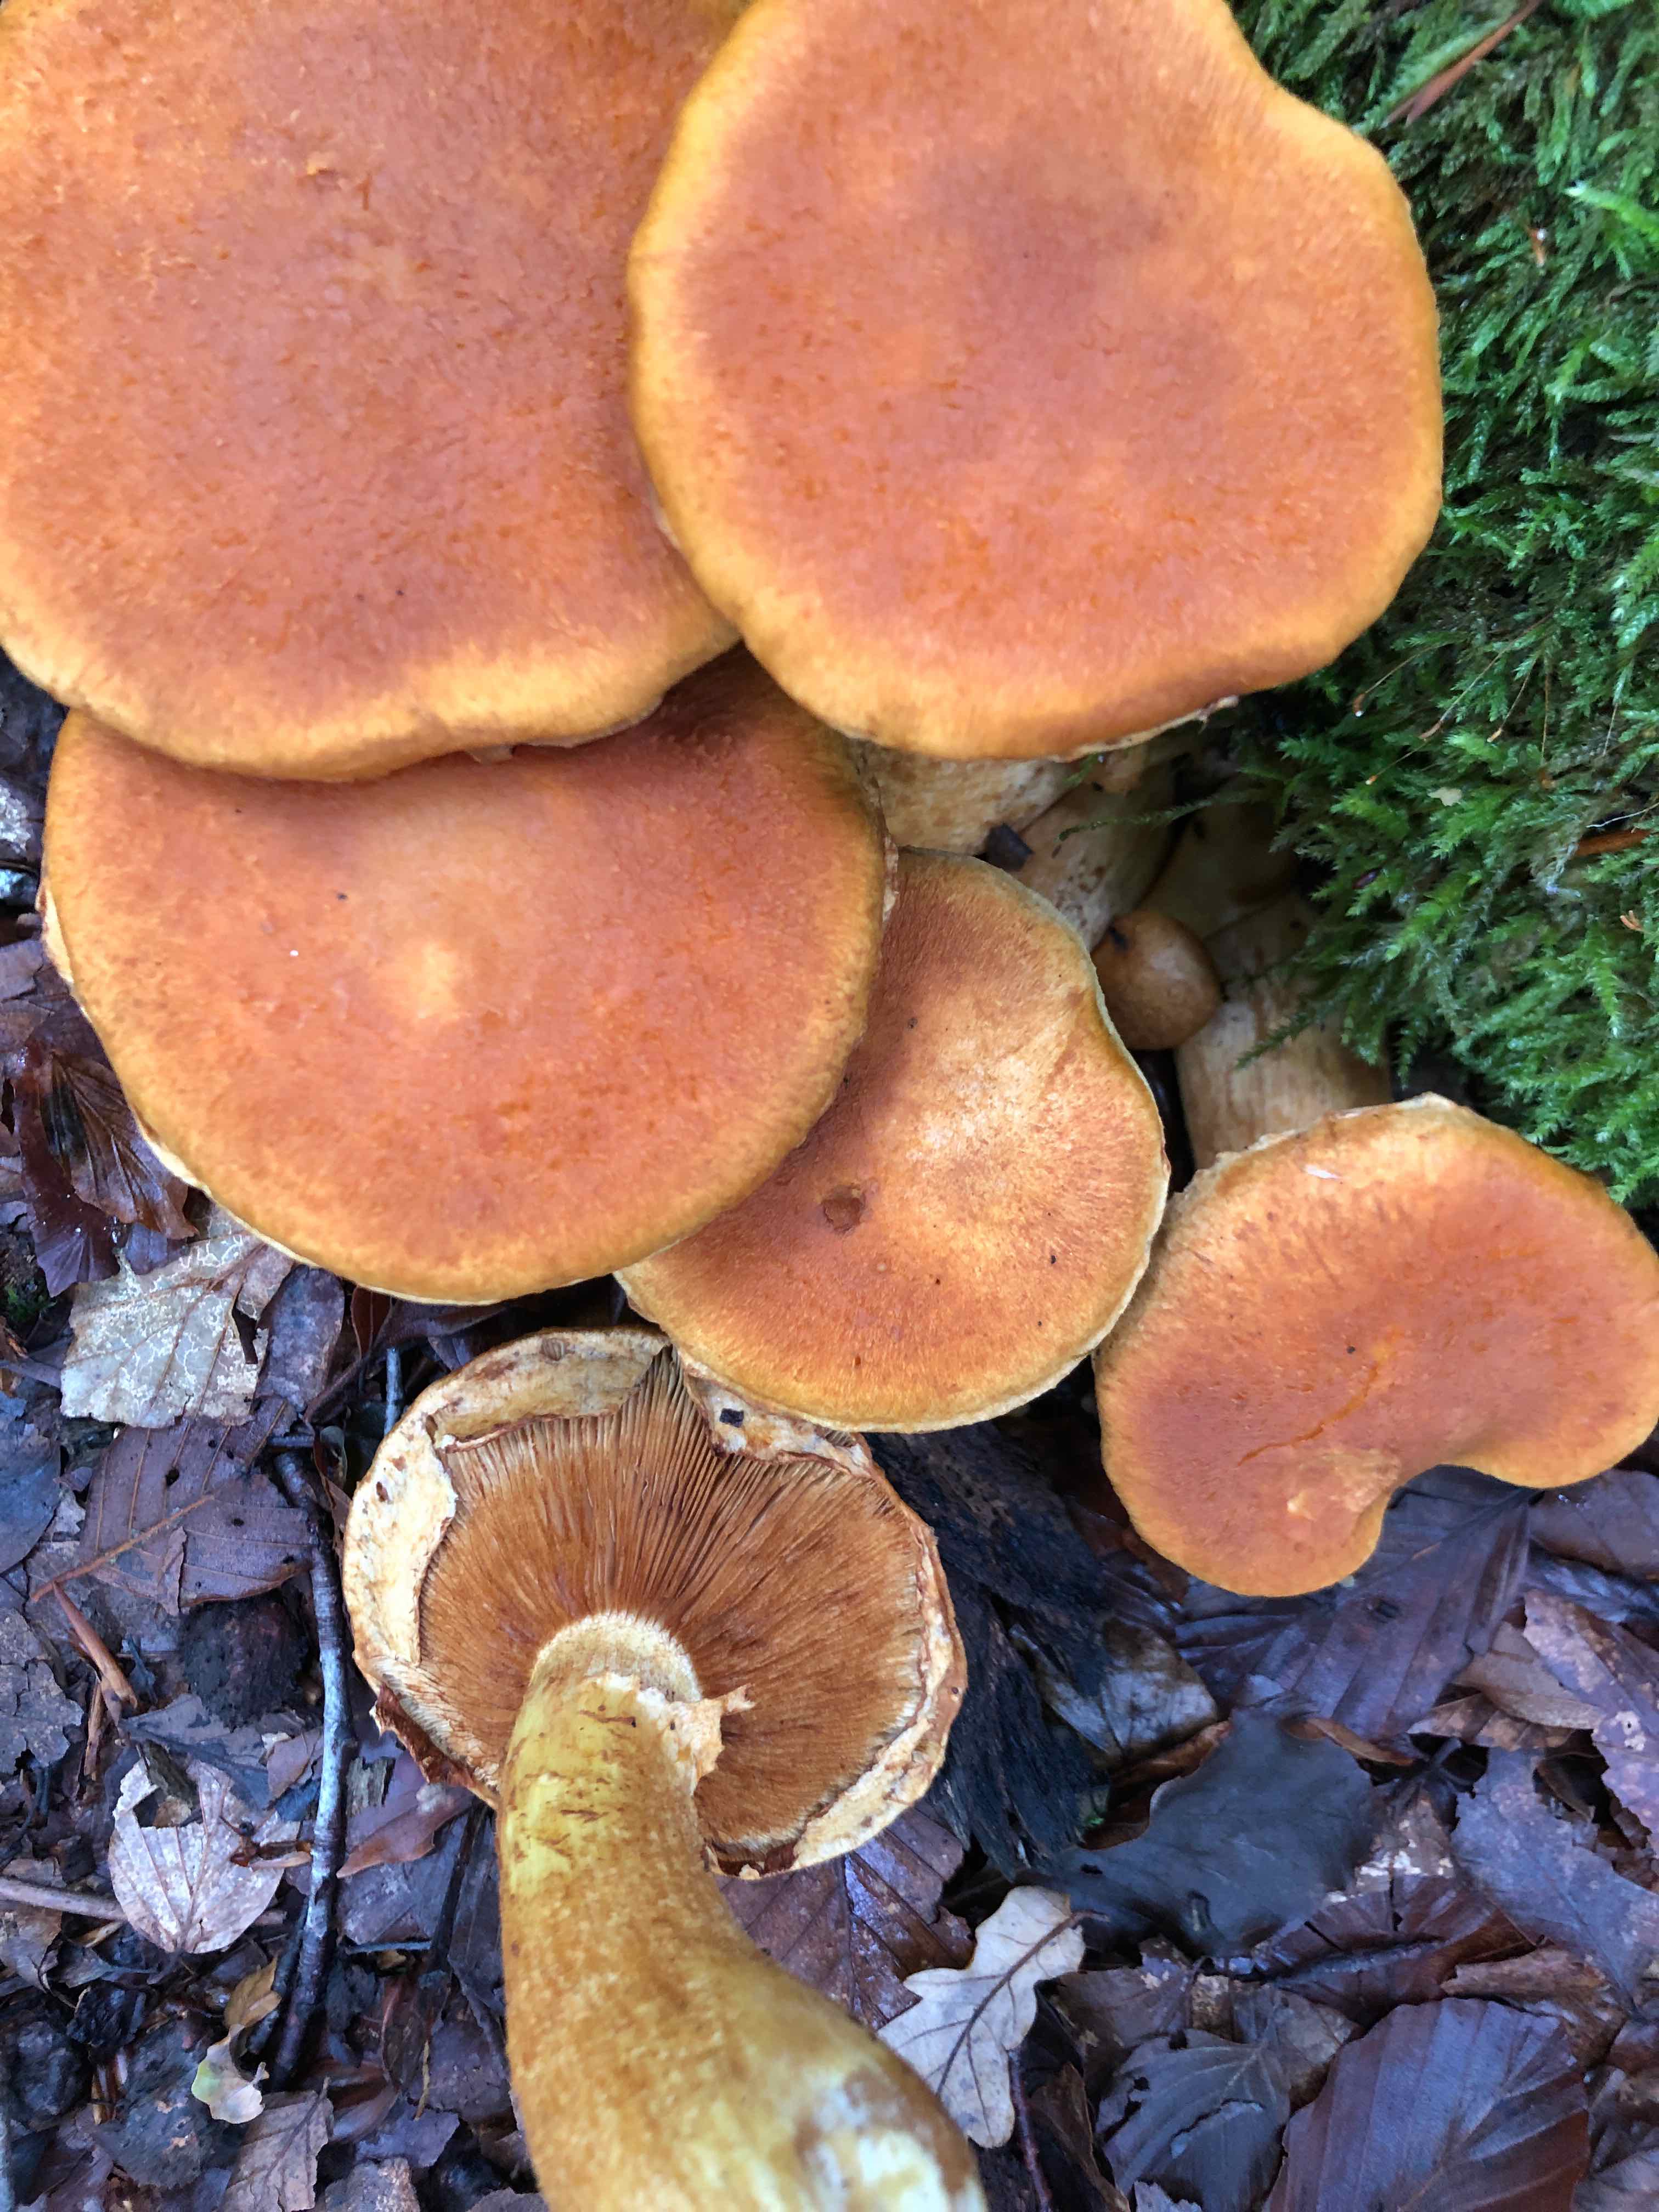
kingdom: Fungi
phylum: Basidiomycota
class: Agaricomycetes
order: Agaricales
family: Hymenogastraceae
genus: Gymnopilus
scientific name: Gymnopilus spectabilis
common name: fibret flammehat
